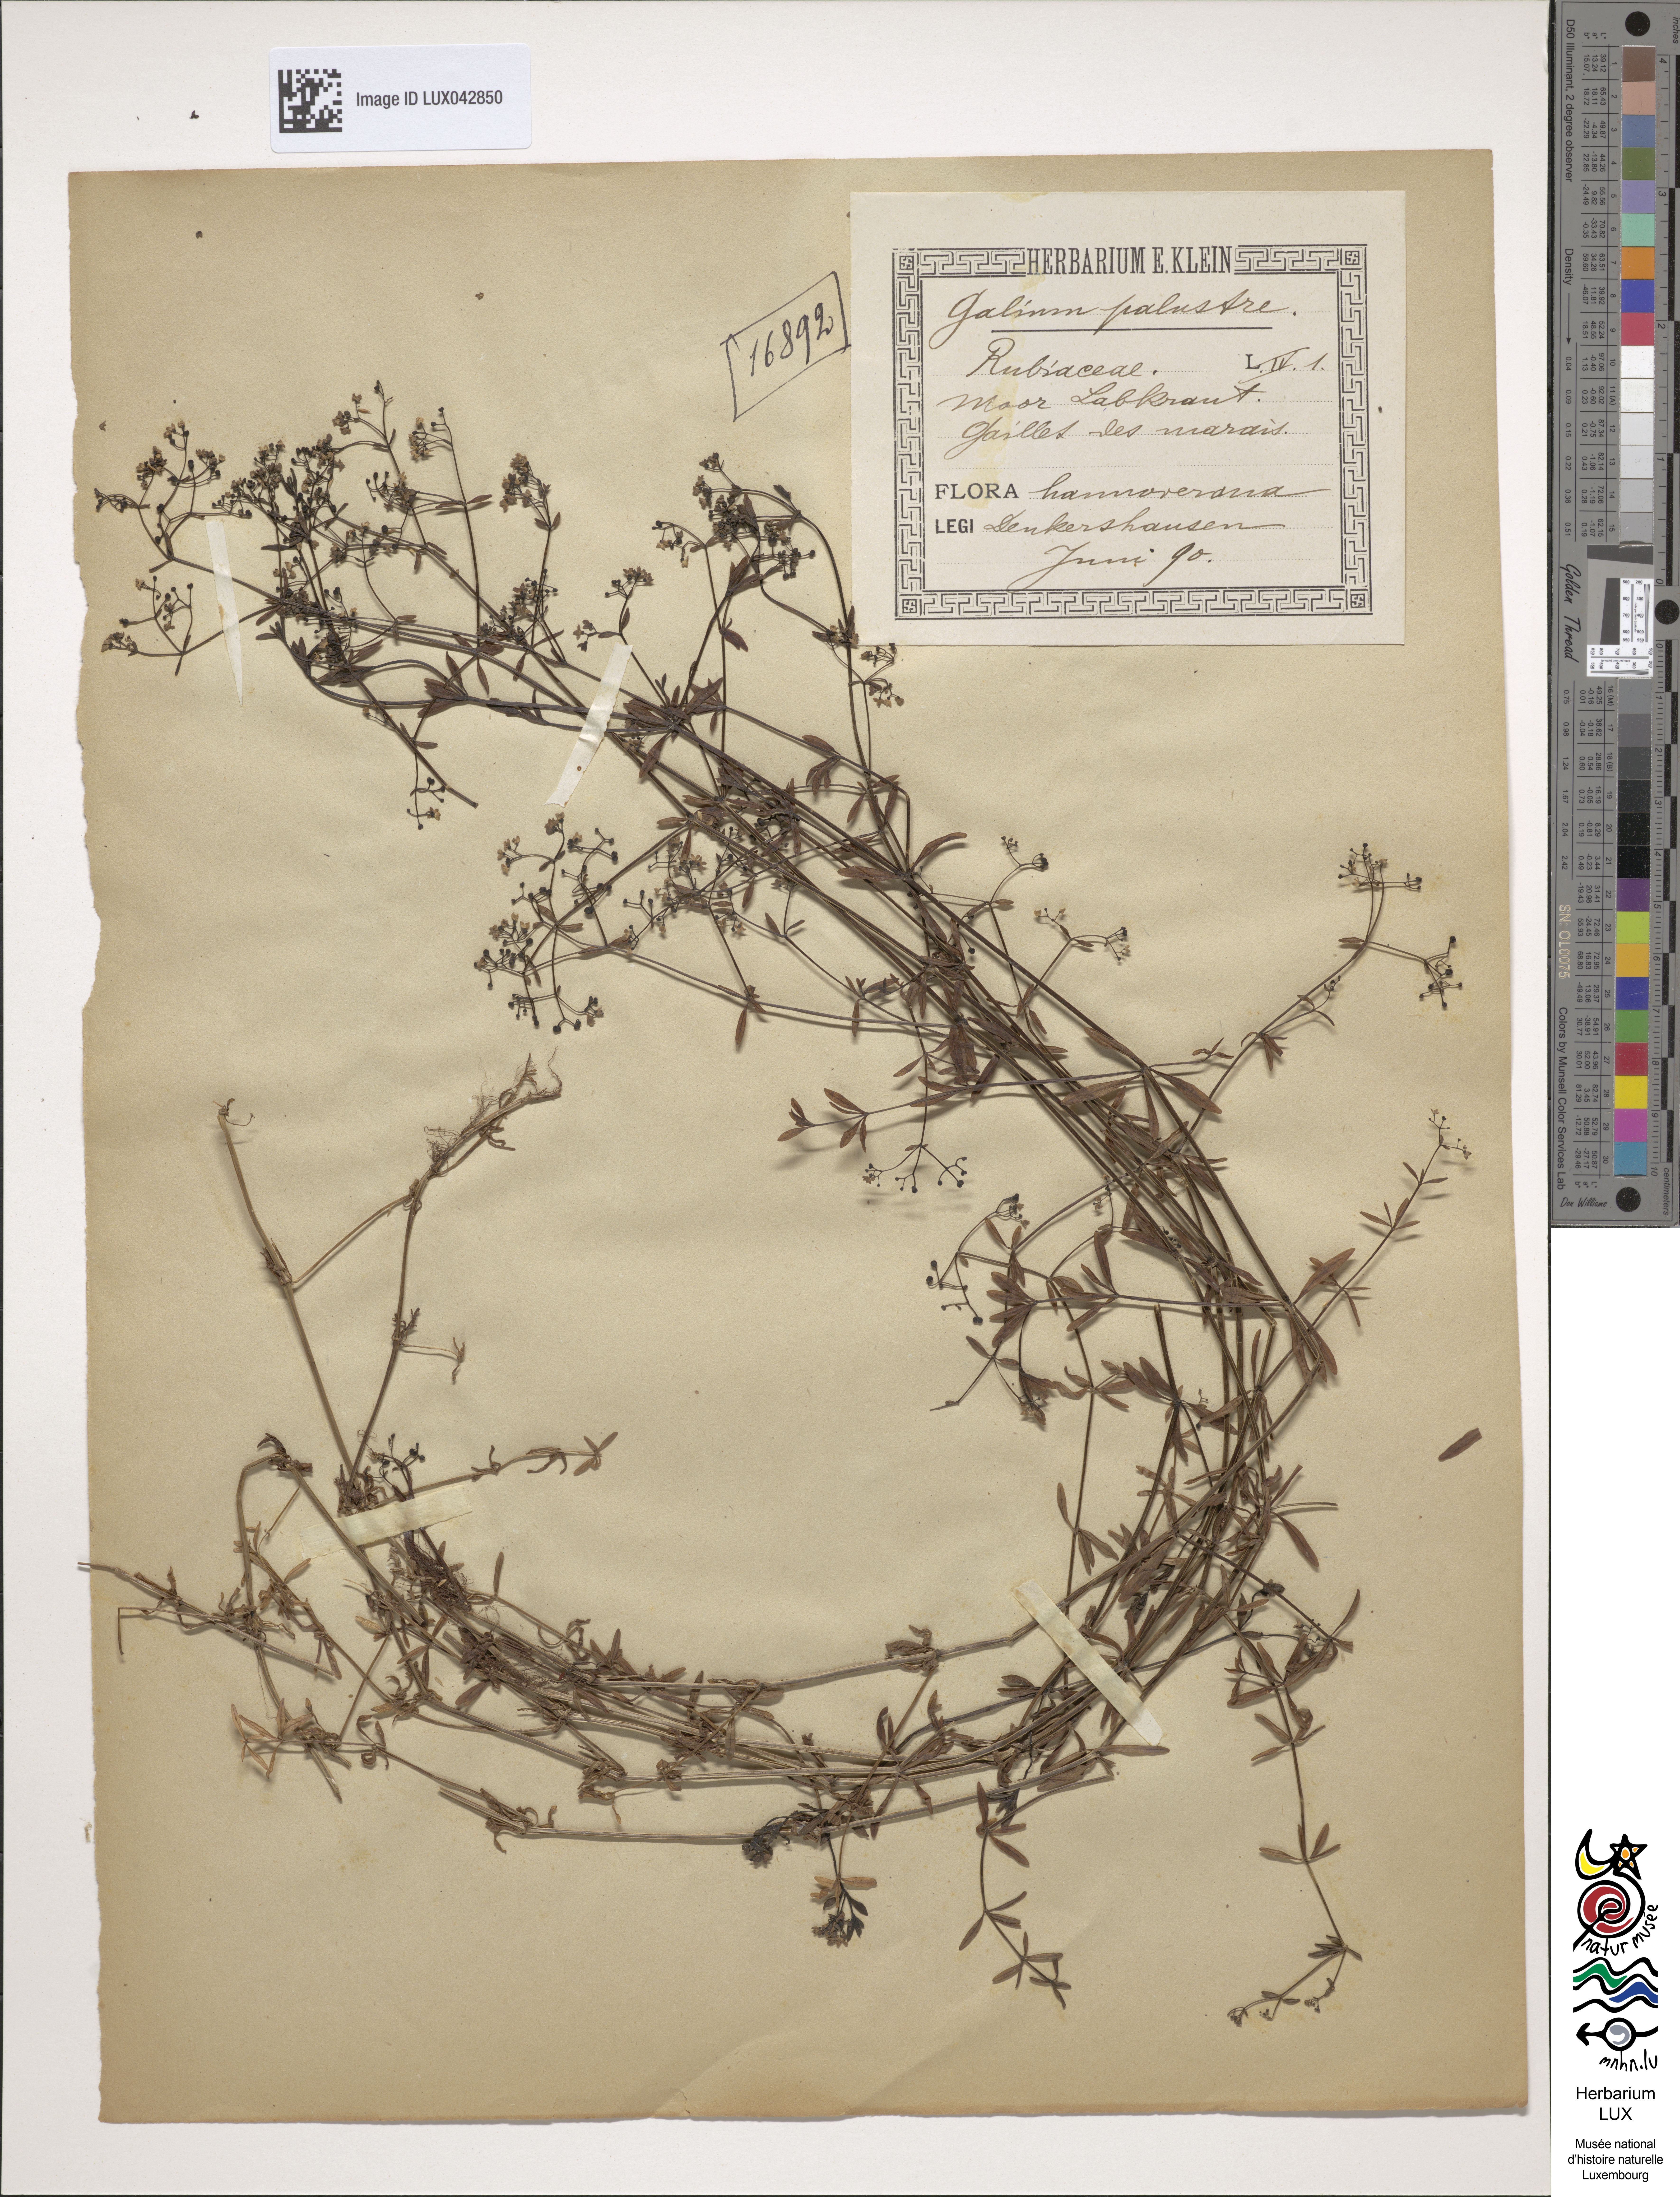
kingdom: Plantae
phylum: Tracheophyta
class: Magnoliopsida
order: Gentianales
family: Rubiaceae
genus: Galium
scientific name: Galium palustre
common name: Common marsh-bedstraw
